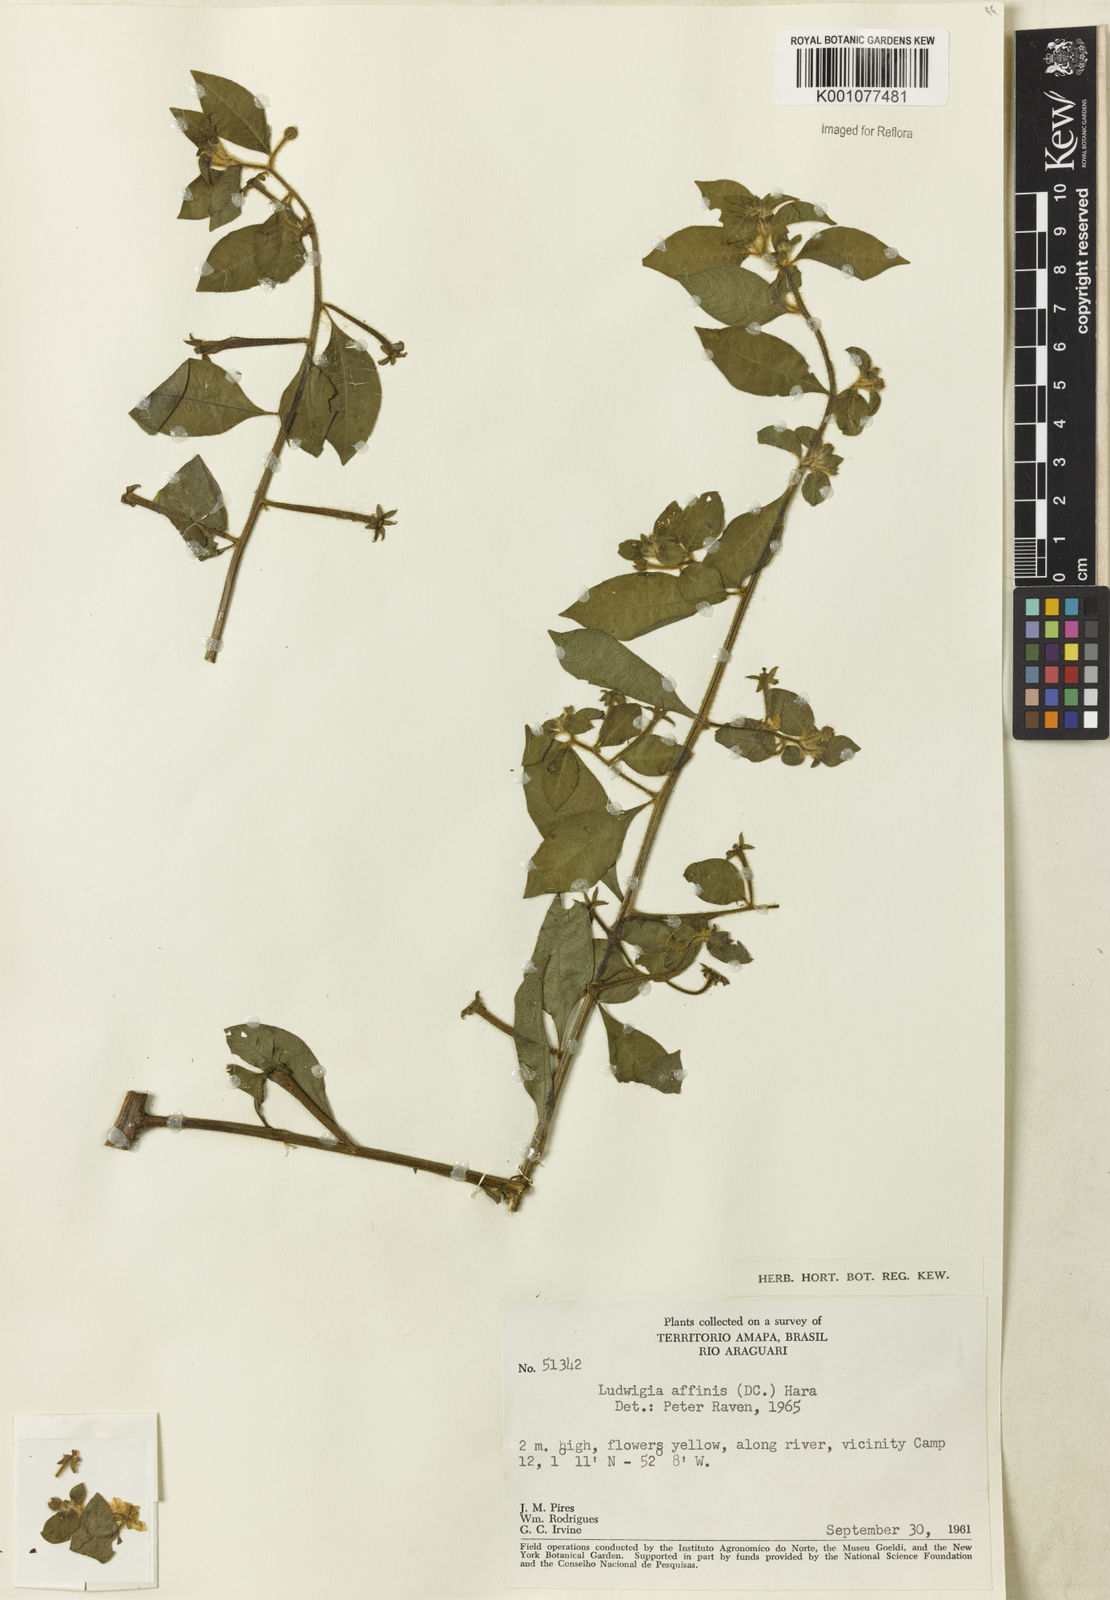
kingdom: Plantae
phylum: Tracheophyta
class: Magnoliopsida
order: Myrtales
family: Onagraceae
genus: Ludwigia
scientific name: Ludwigia affinis
